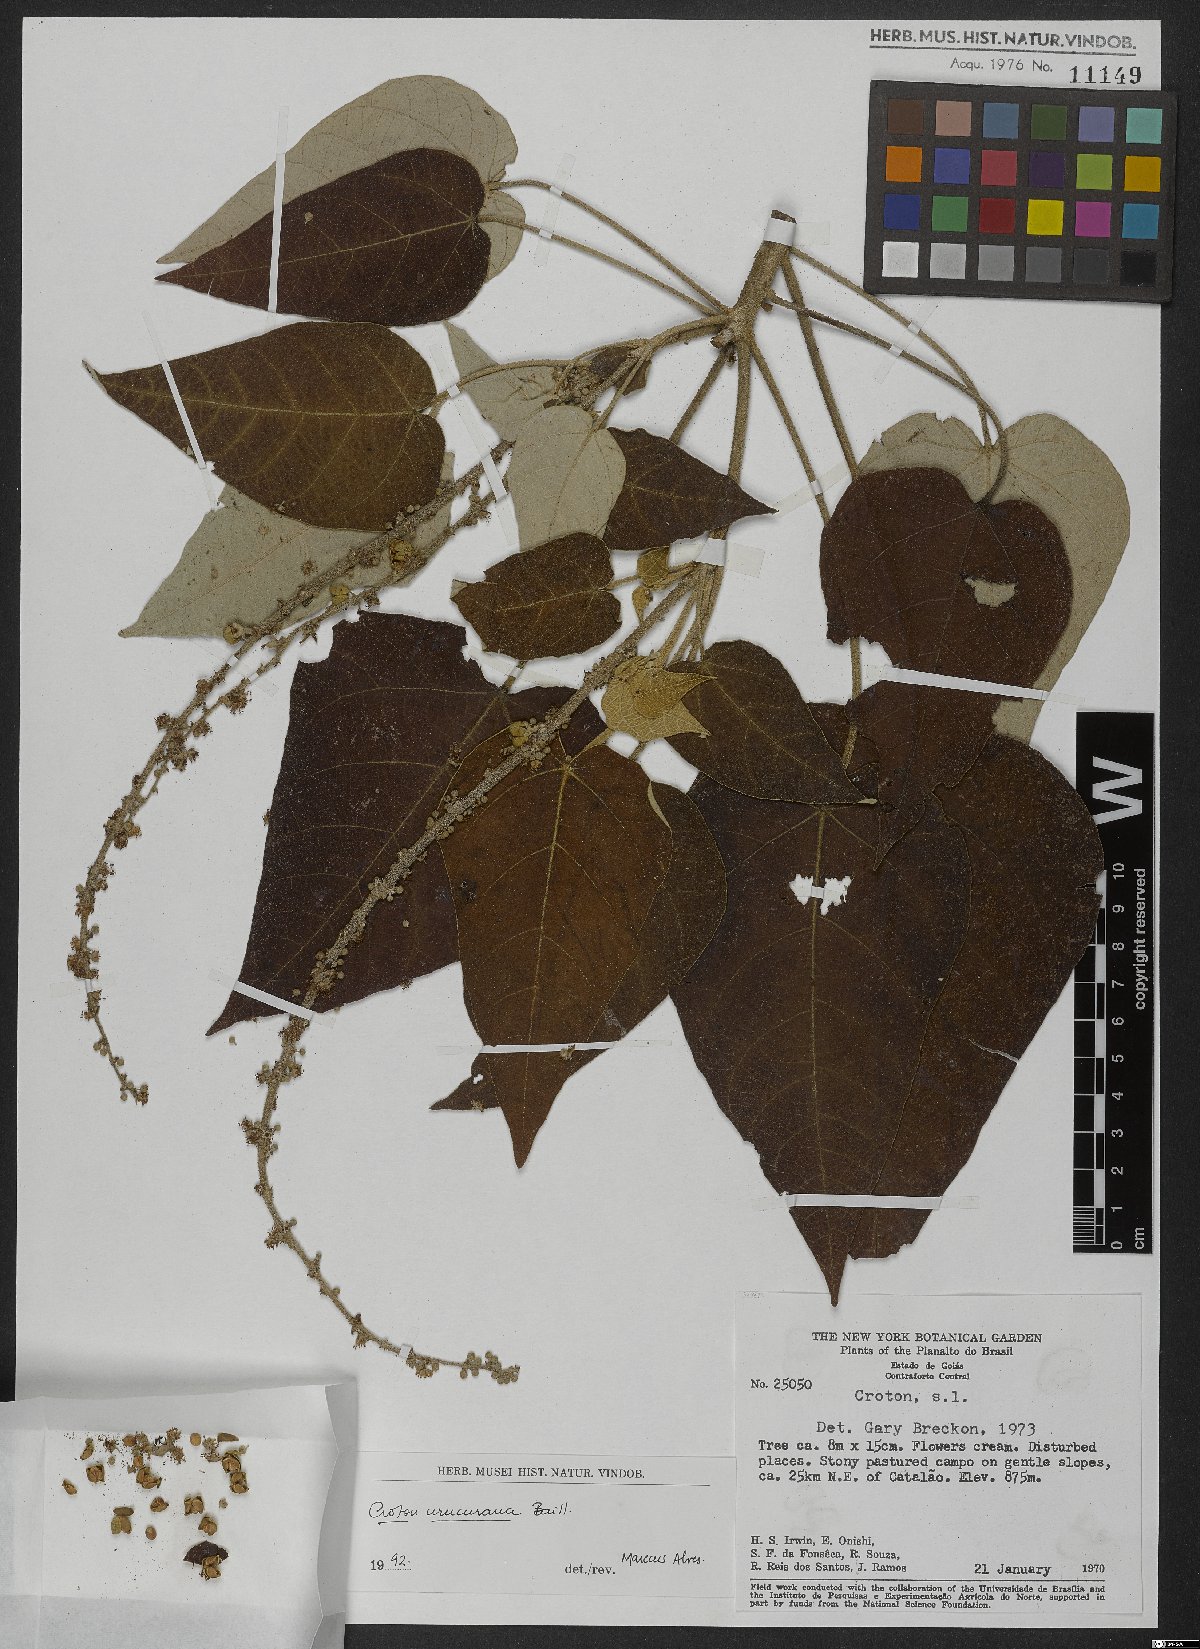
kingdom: Plantae
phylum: Tracheophyta
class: Magnoliopsida
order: Malpighiales
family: Euphorbiaceae
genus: Croton
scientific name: Croton urucurana
